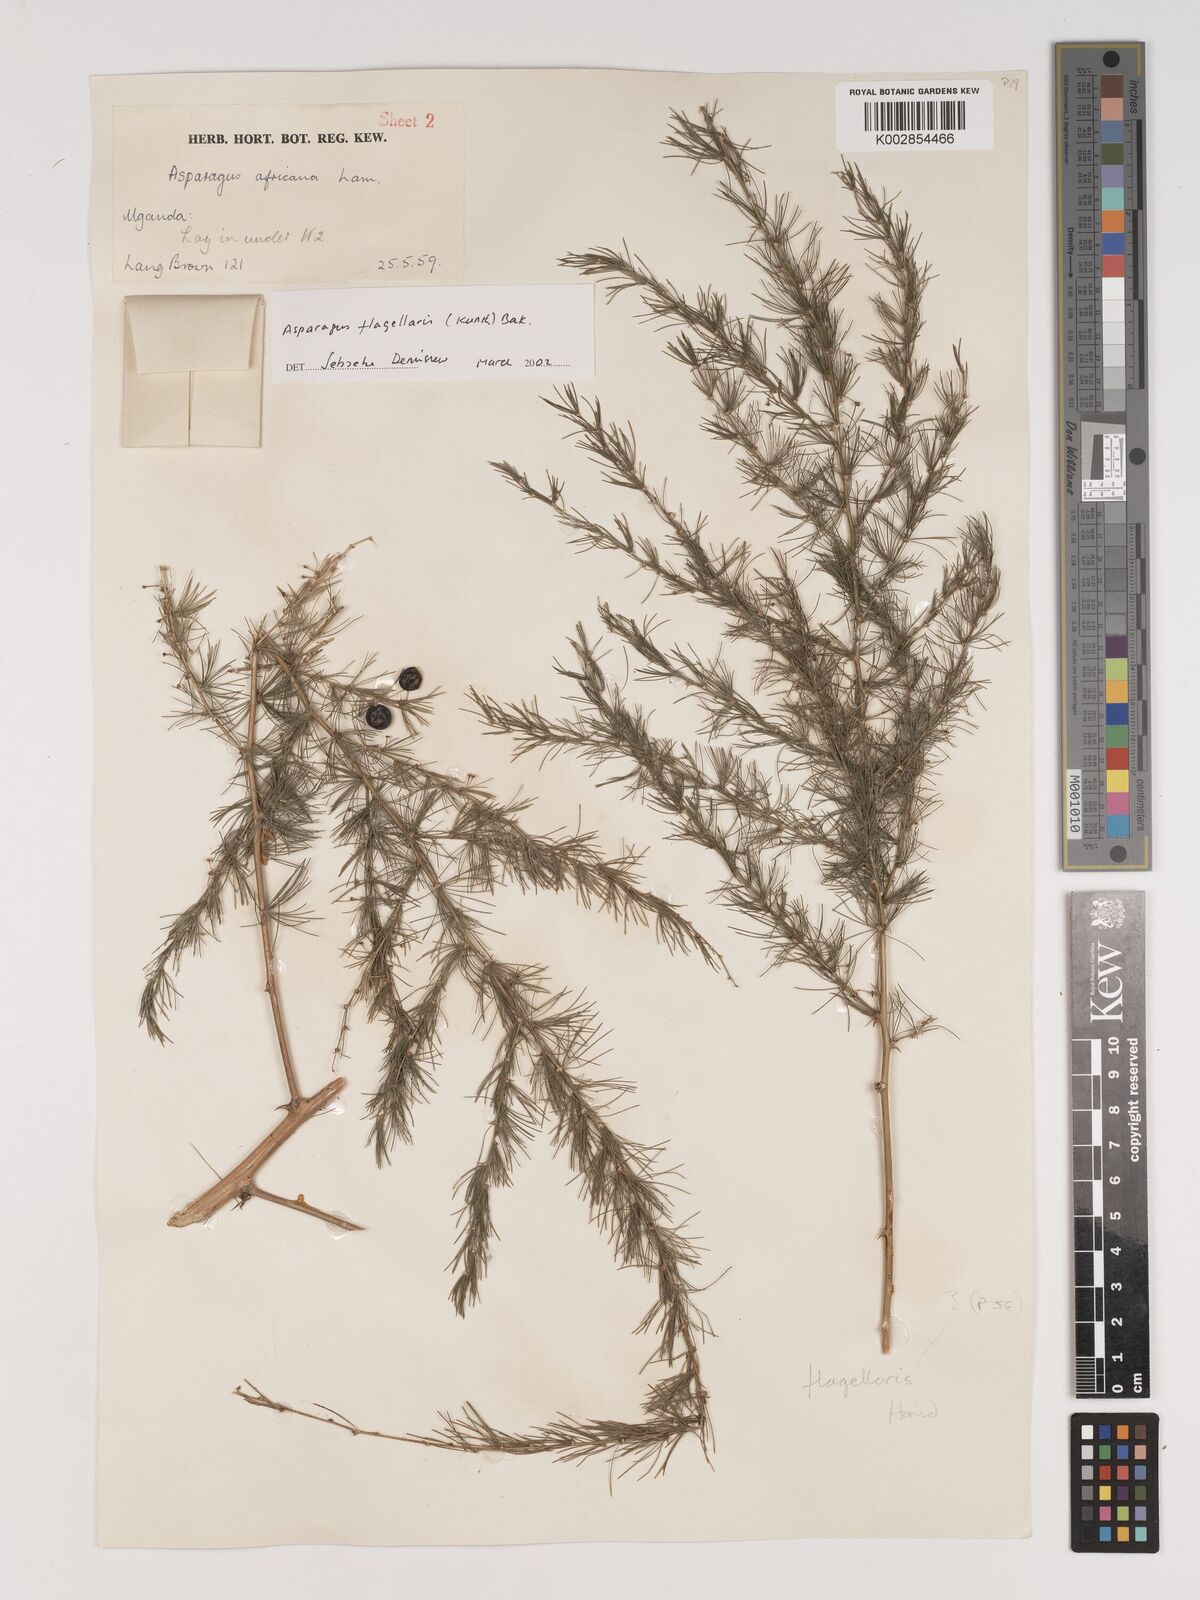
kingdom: Plantae
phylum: Tracheophyta
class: Liliopsida
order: Asparagales
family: Asparagaceae
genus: Asparagus
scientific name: Asparagus flagellaris
